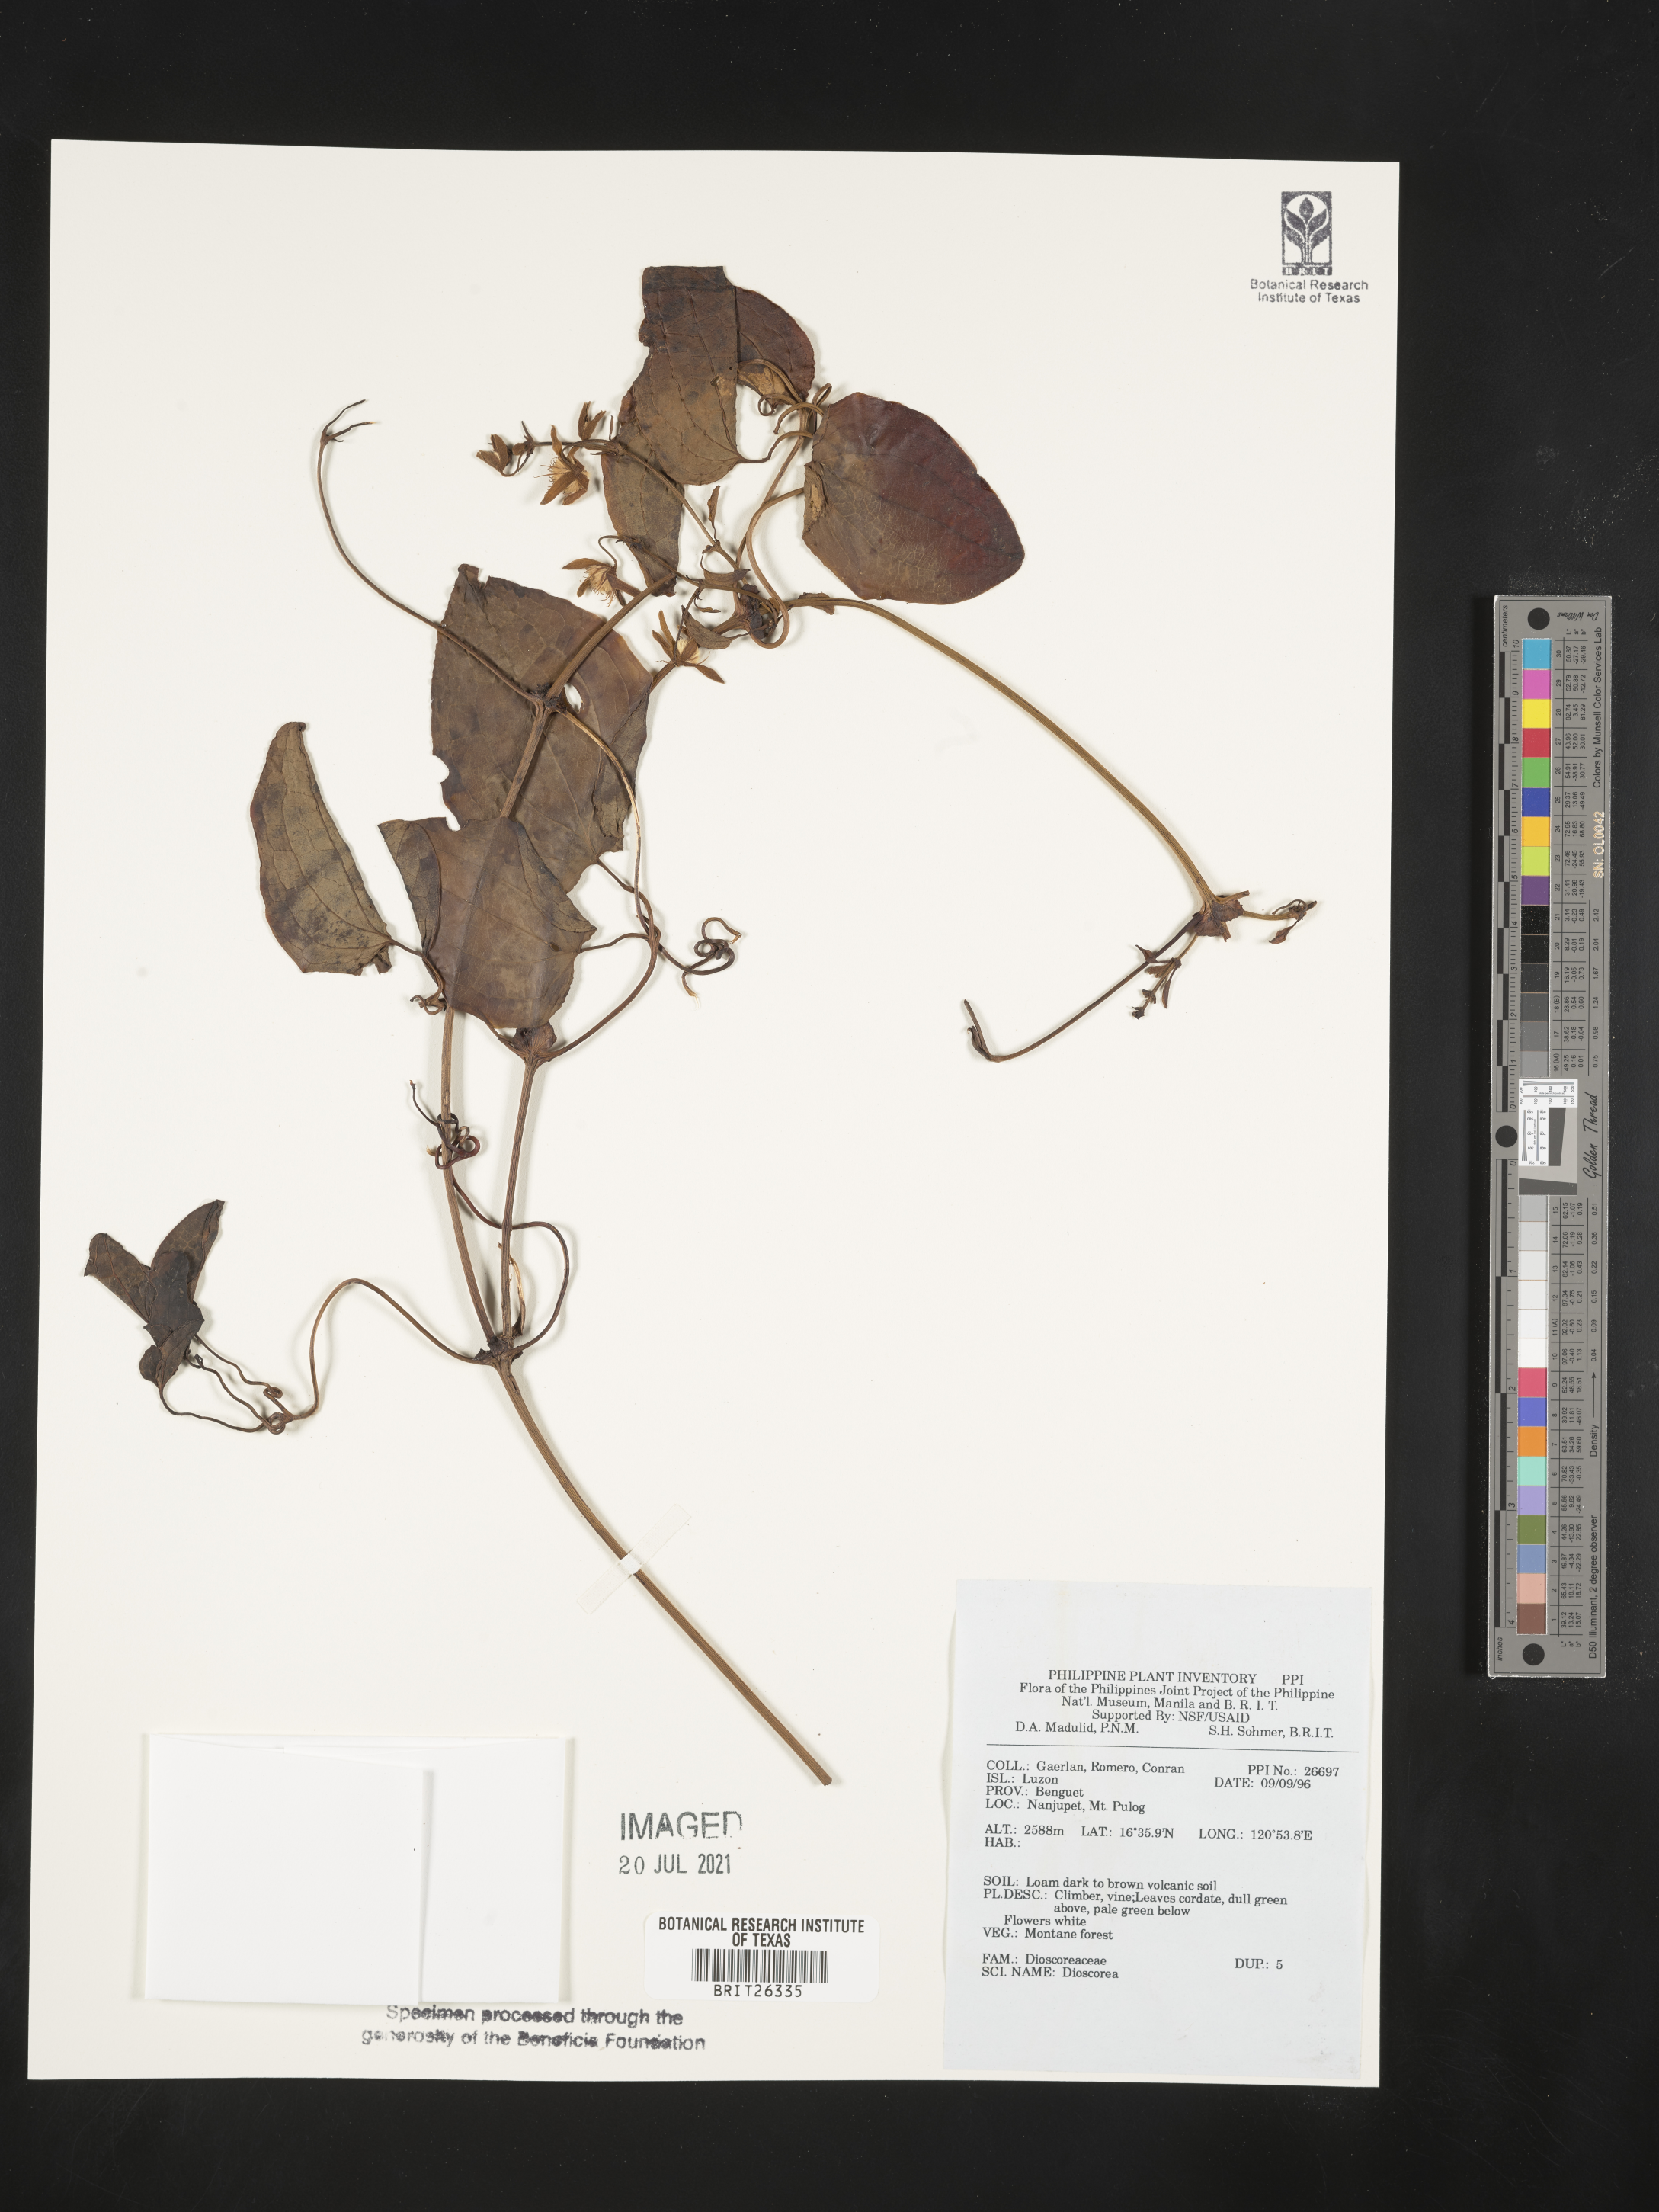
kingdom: Plantae
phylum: Tracheophyta
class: Liliopsida
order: Dioscoreales
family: Dioscoreaceae
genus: Dioscorea
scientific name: Dioscorea
